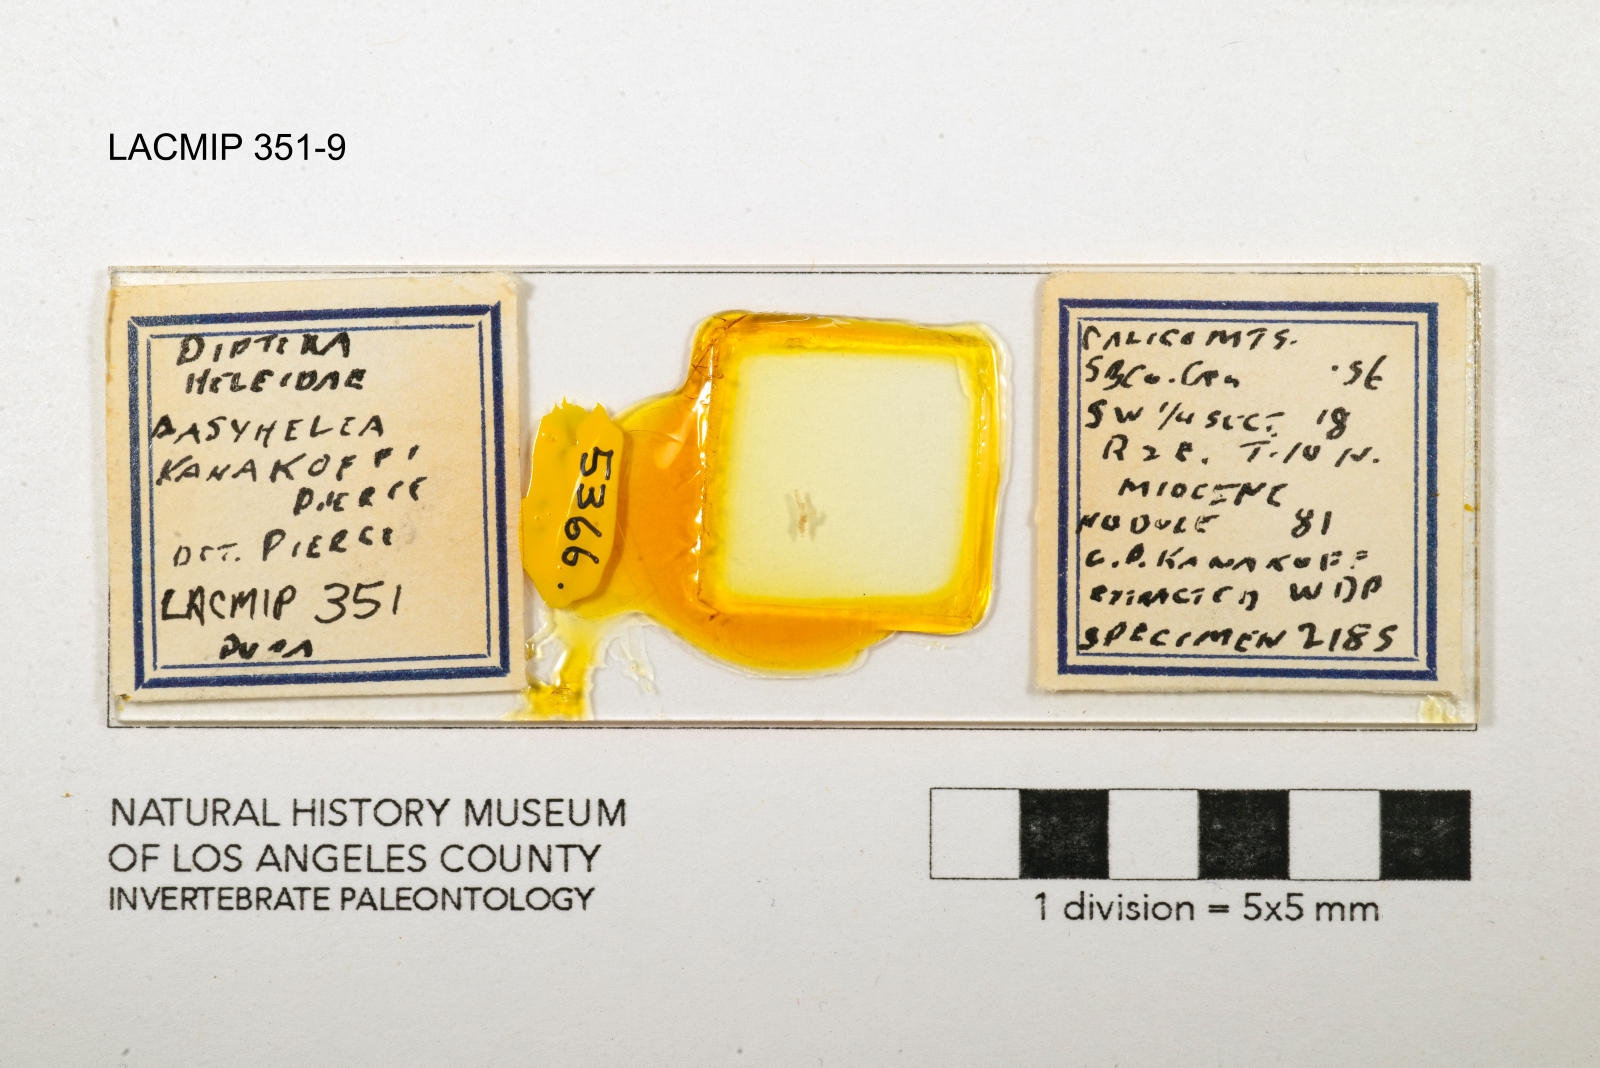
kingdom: Animalia
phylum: Arthropoda
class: Insecta
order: Diptera
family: Ceratopogonidae
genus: Dasyhelea
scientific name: Dasyhelea kanakoffi
